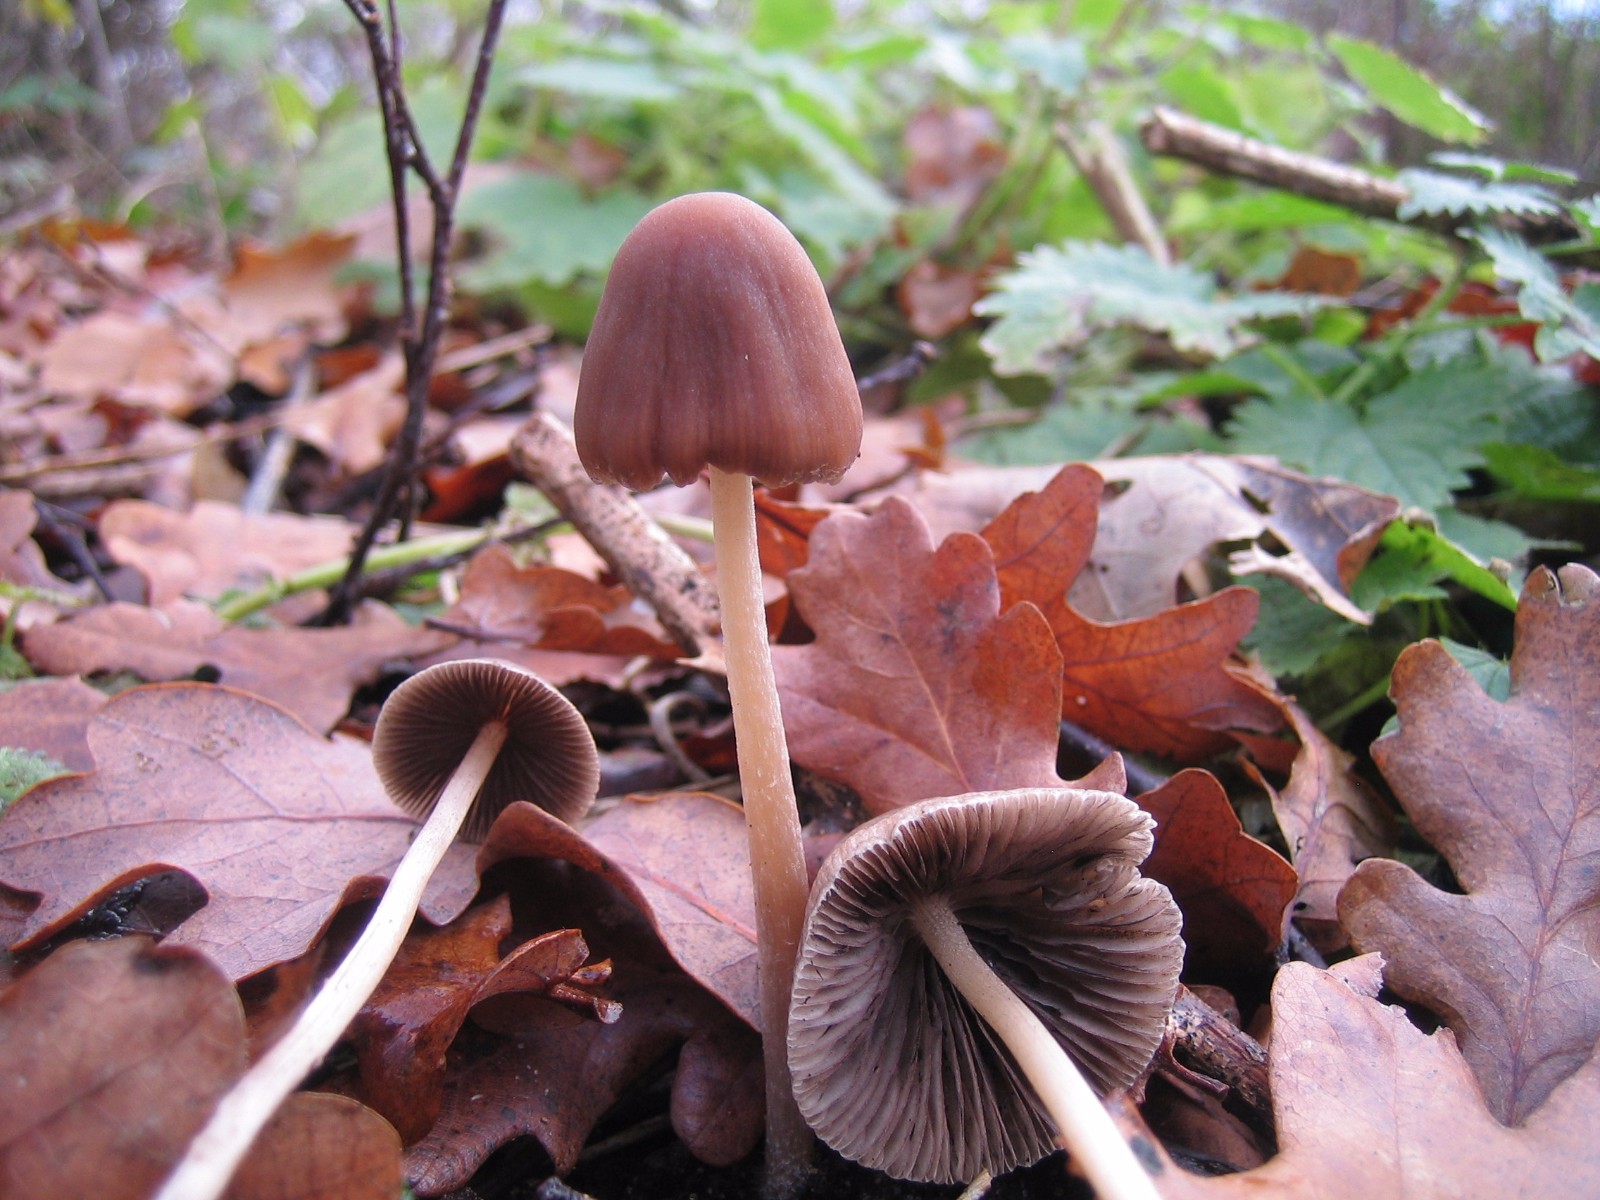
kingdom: Fungi
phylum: Basidiomycota
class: Agaricomycetes
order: Agaricales
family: Psathyrellaceae
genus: Psathyrella
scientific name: Psathyrella
